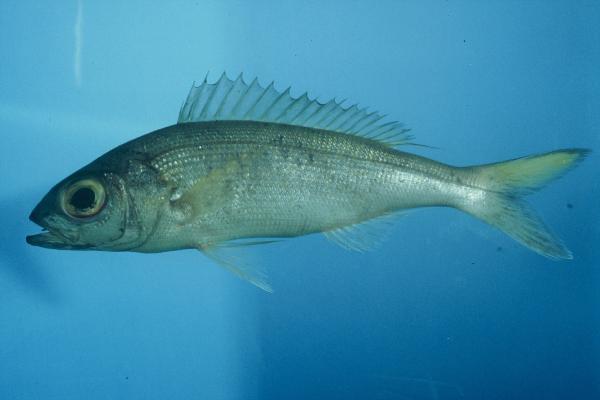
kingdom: Animalia
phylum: Chordata
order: Perciformes
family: Lutjanidae
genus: Pristipomoides
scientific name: Pristipomoides auricilla
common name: Goldflag jobfish
